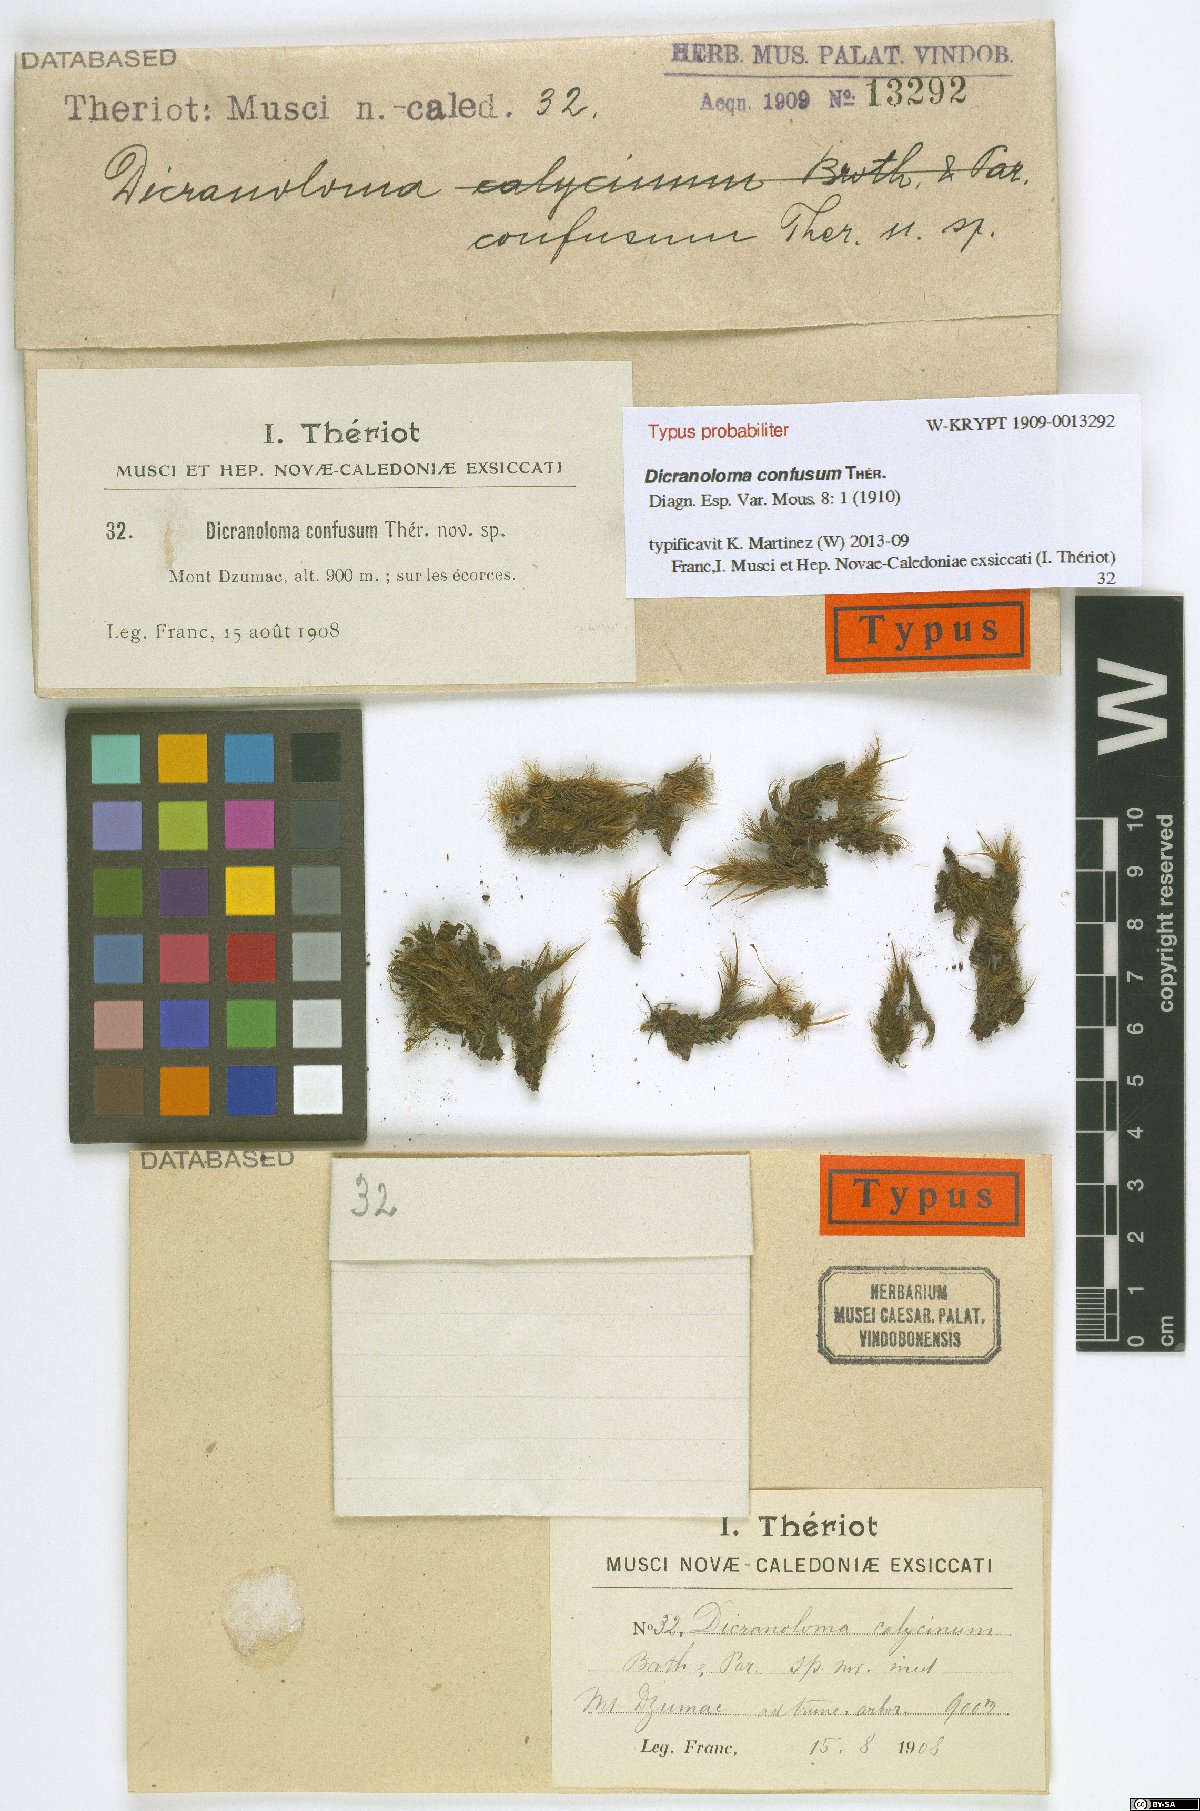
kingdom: Plantae
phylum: Bryophyta
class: Bryopsida
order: Dicranales
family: Dicranaceae
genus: Dicranoloma
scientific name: Dicranoloma confusum
